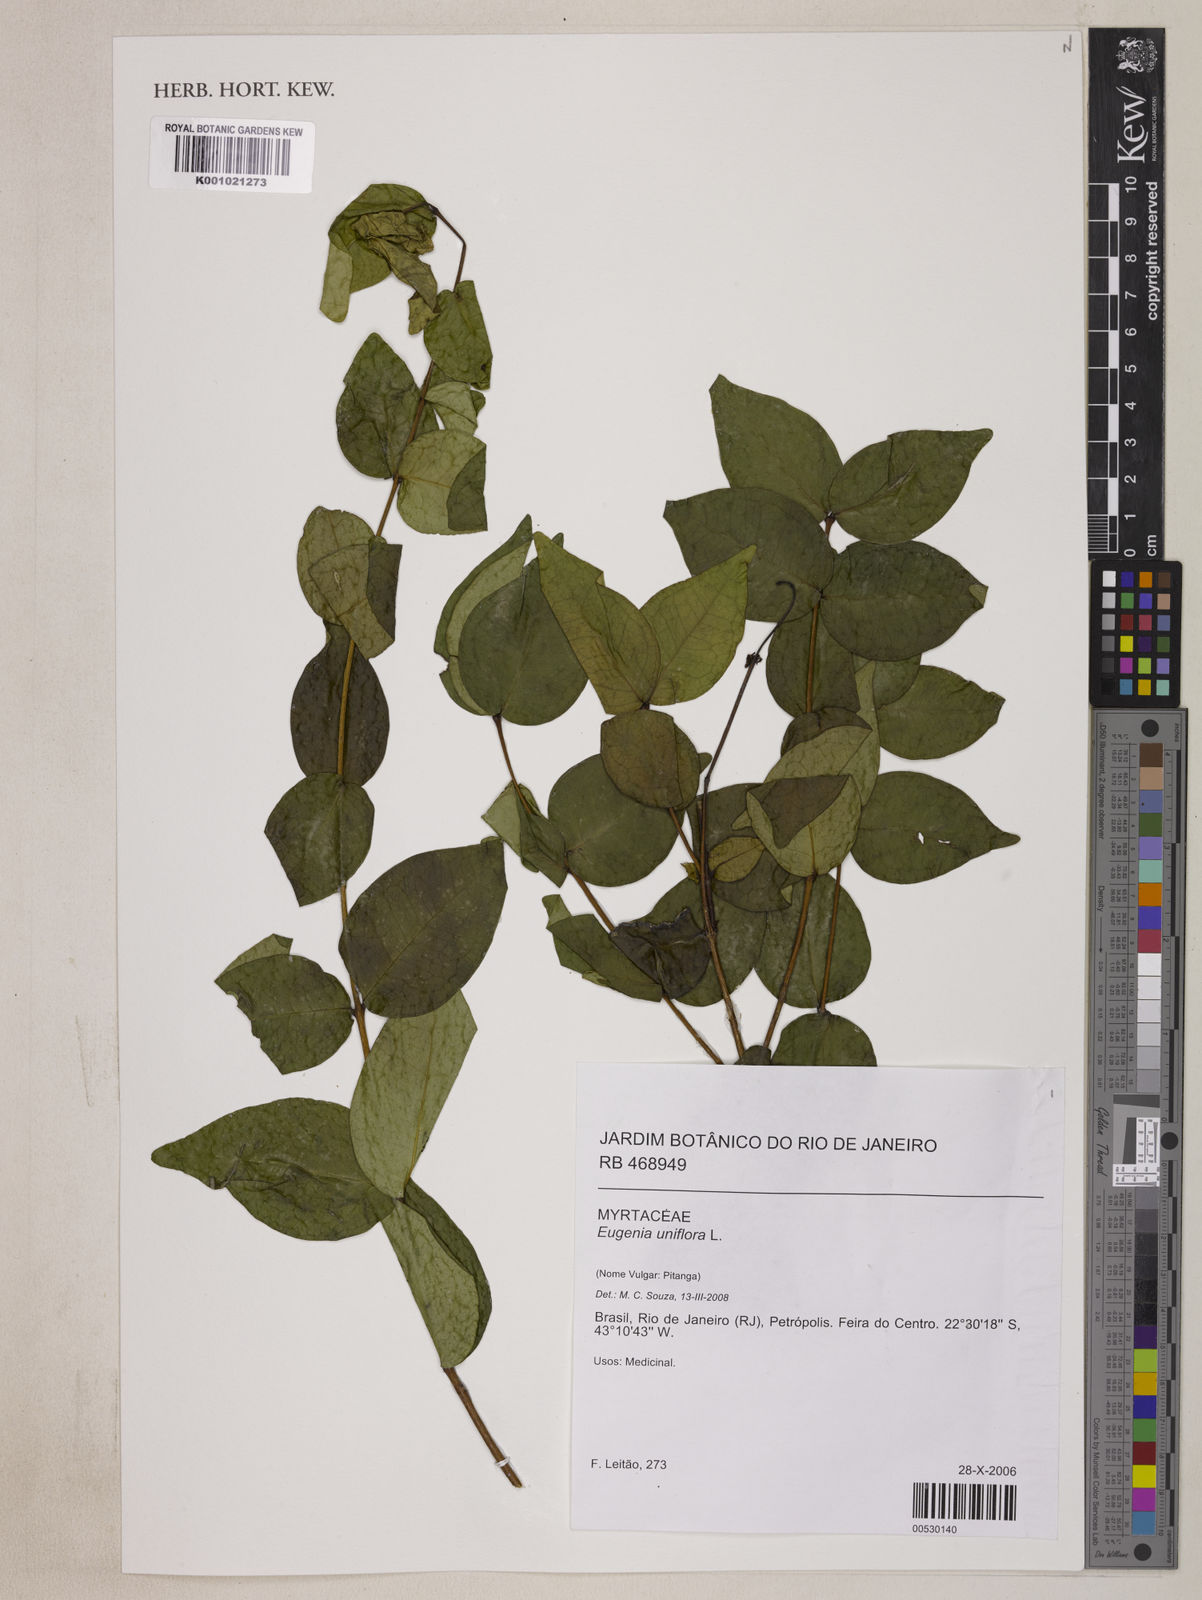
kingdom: Plantae
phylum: Tracheophyta
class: Magnoliopsida
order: Myrtales
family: Myrtaceae
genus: Eugenia
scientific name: Eugenia uniflora
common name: Surinam cherry
